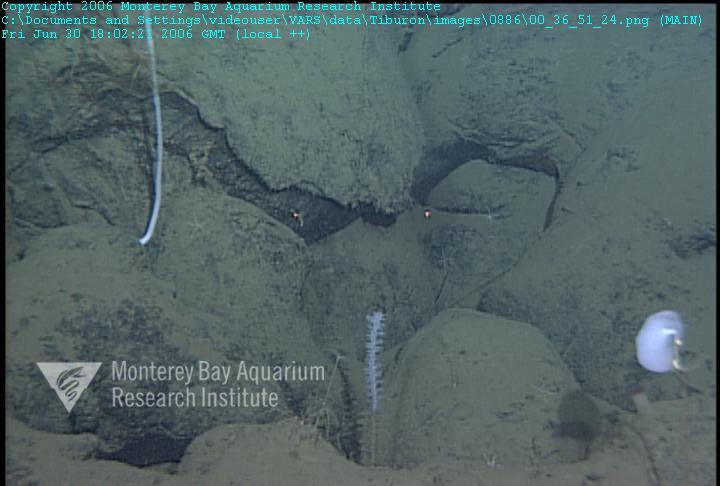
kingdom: Animalia
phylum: Porifera
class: Hexactinellida
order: Lyssacinosida
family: Rossellidae
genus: Caulophacus
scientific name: Caulophacus cyanae
